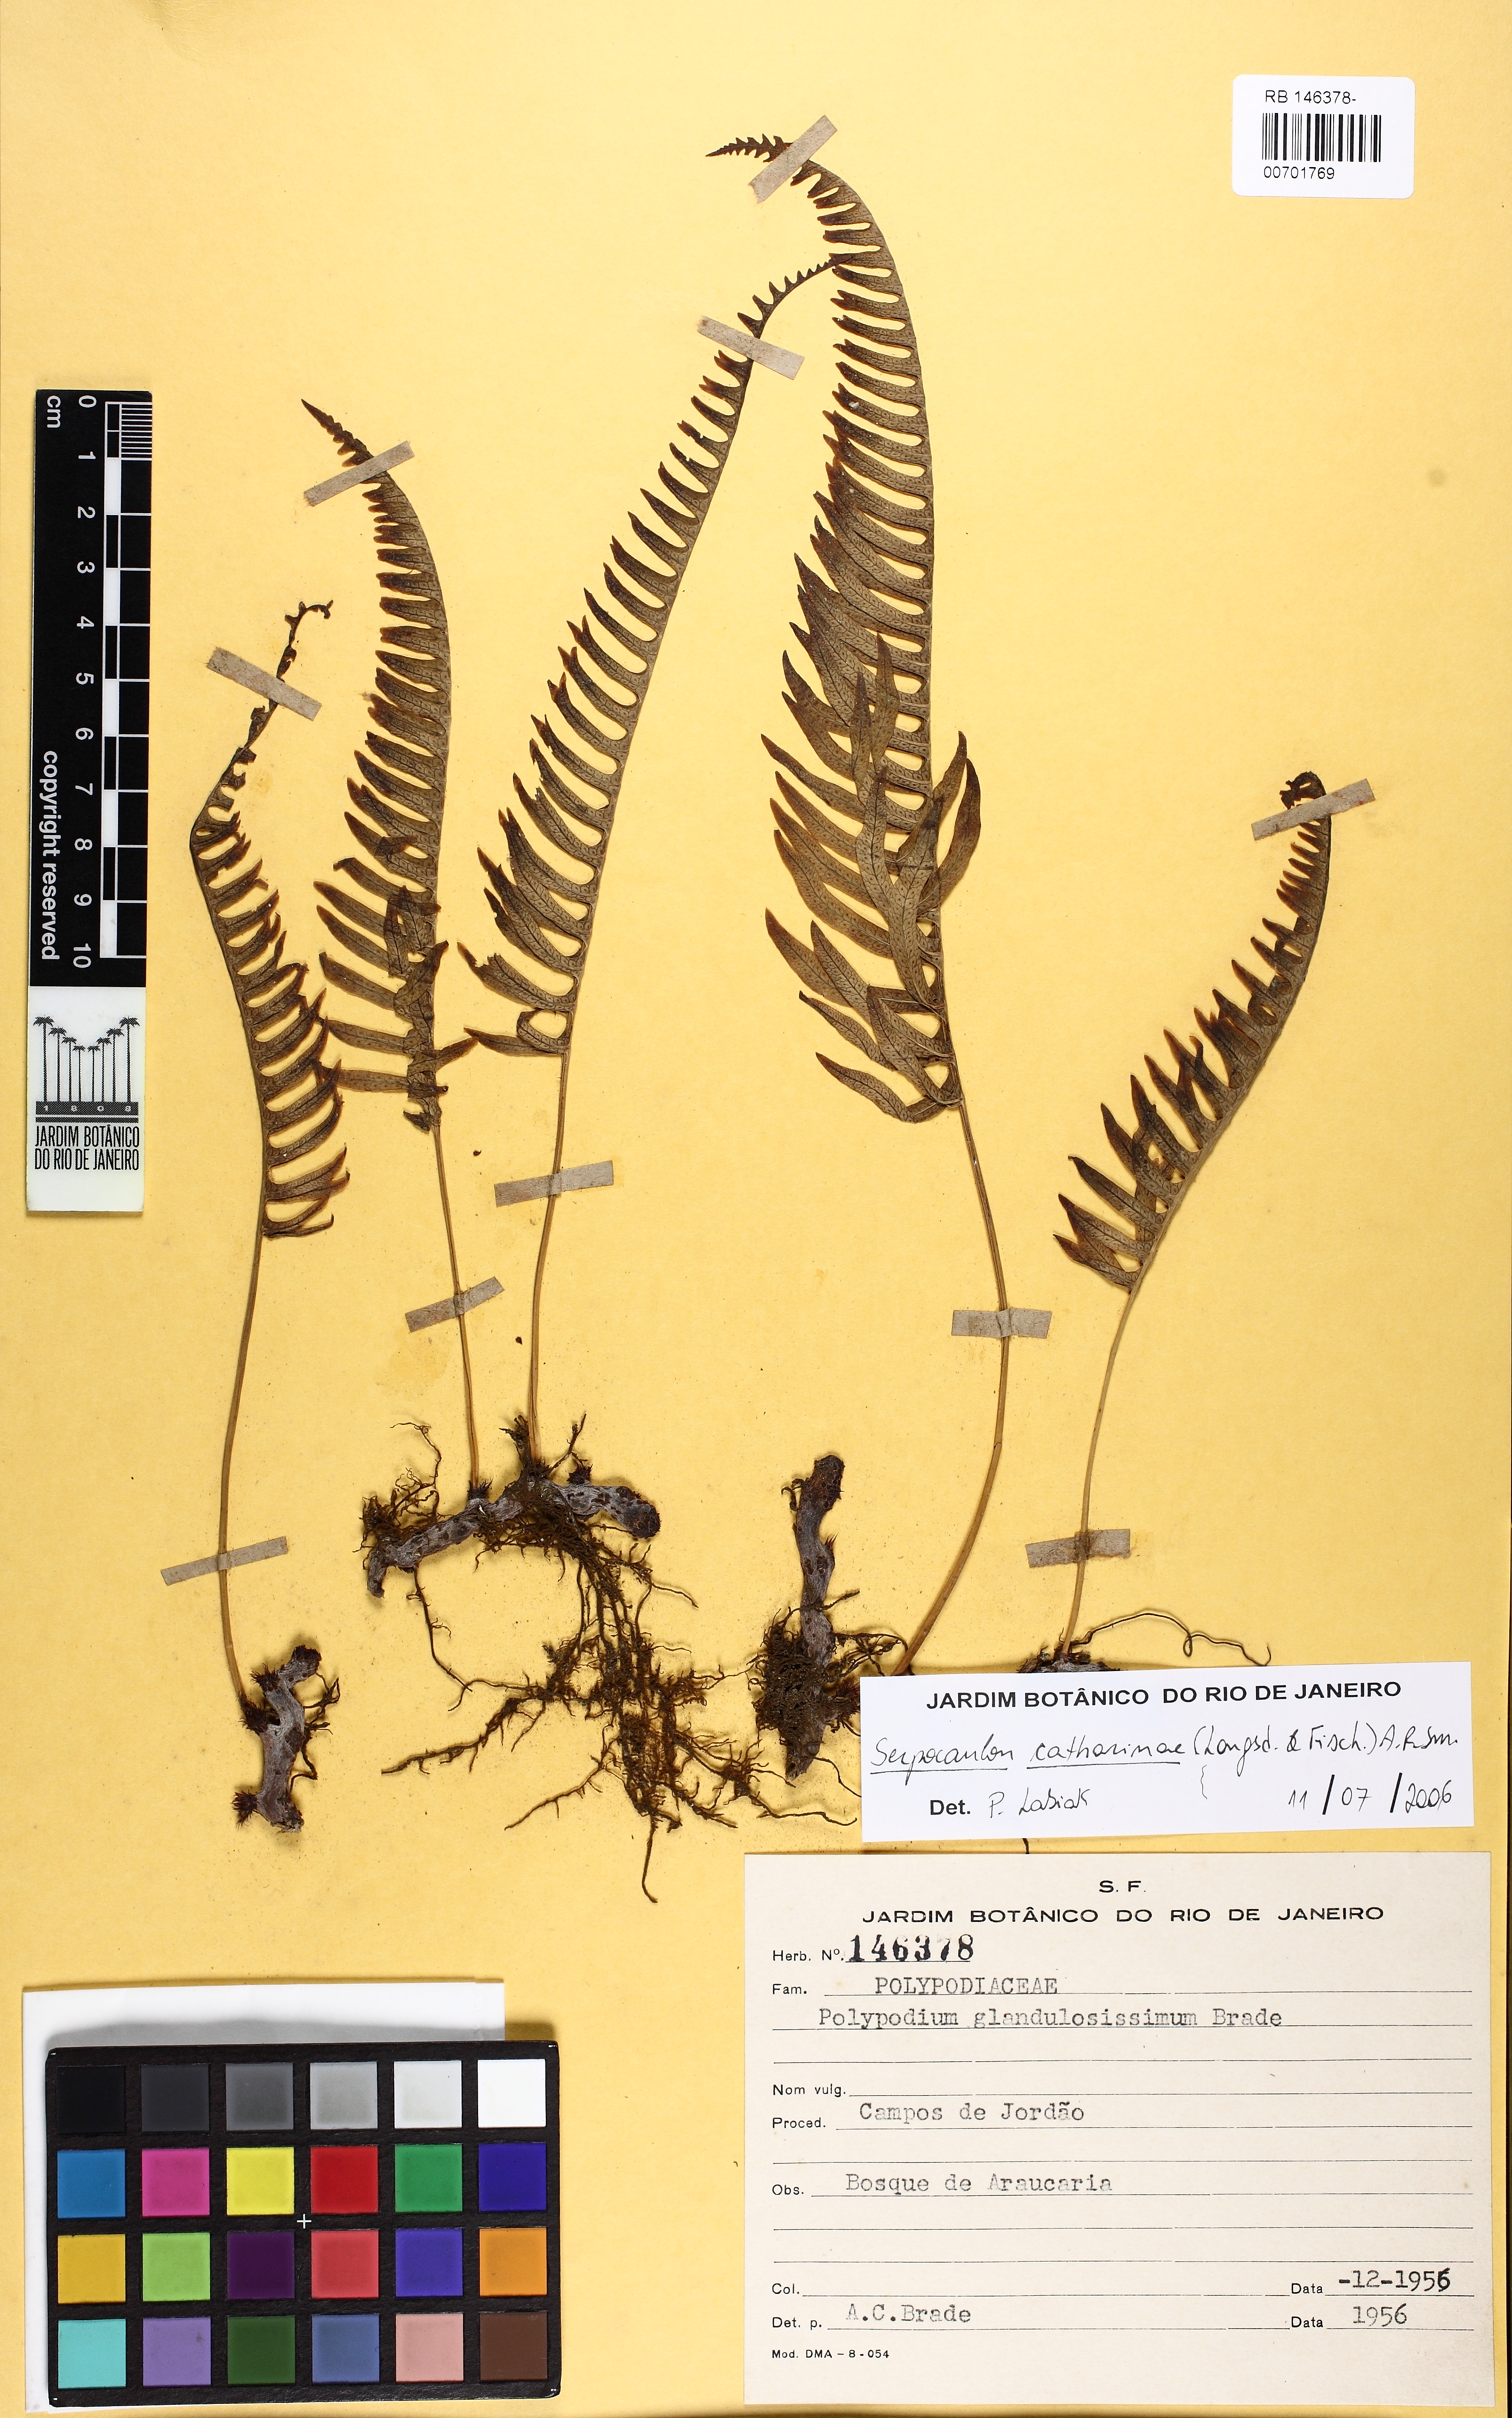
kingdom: Plantae
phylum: Tracheophyta
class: Polypodiopsida
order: Polypodiales
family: Polypodiaceae
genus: Serpocaulon
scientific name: Serpocaulon catharinae
